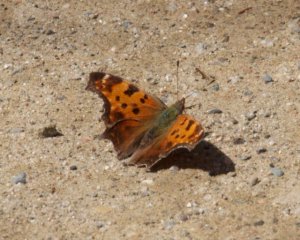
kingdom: Animalia
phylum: Arthropoda
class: Insecta
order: Lepidoptera
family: Nymphalidae
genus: Polygonia
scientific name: Polygonia progne
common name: Gray Comma
